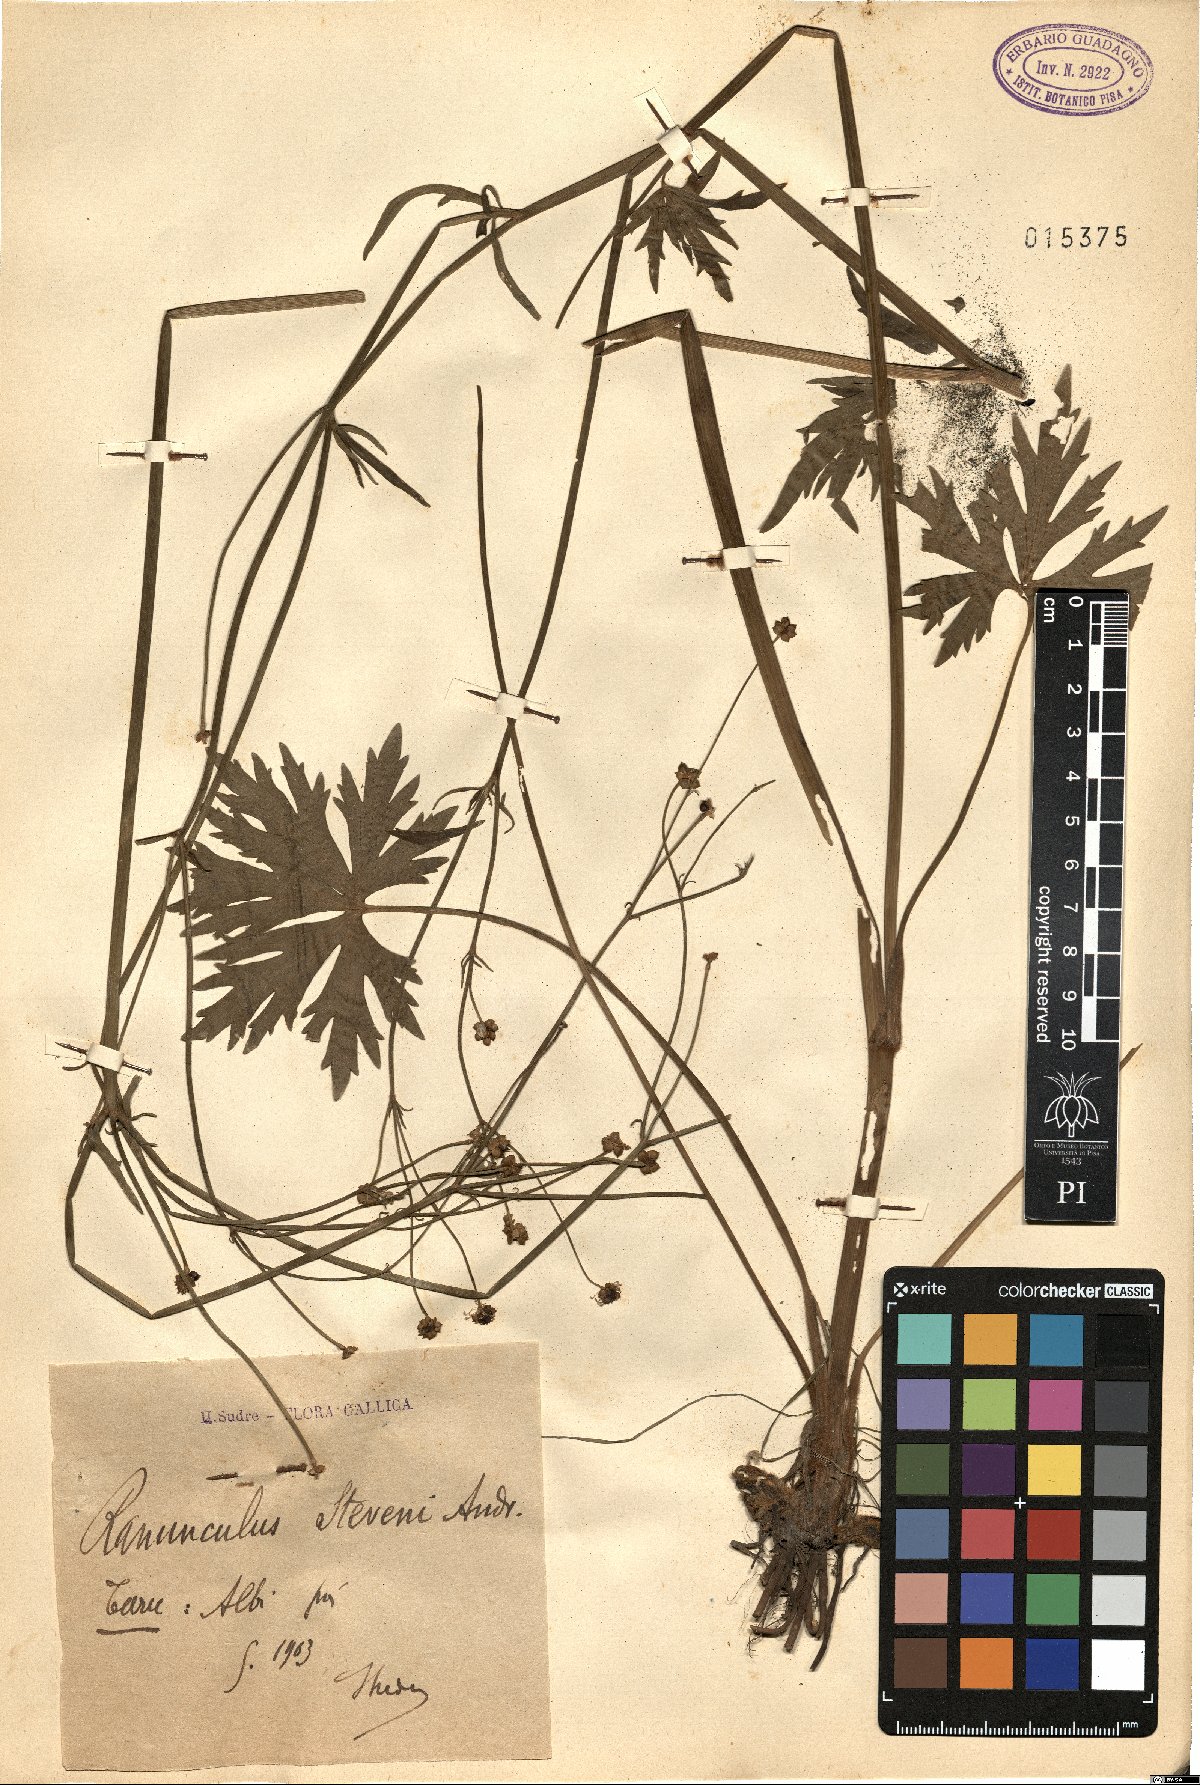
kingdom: Plantae
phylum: Tracheophyta
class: Magnoliopsida
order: Ranunculales
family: Ranunculaceae
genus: Ranunculus
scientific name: Ranunculus japonicus
